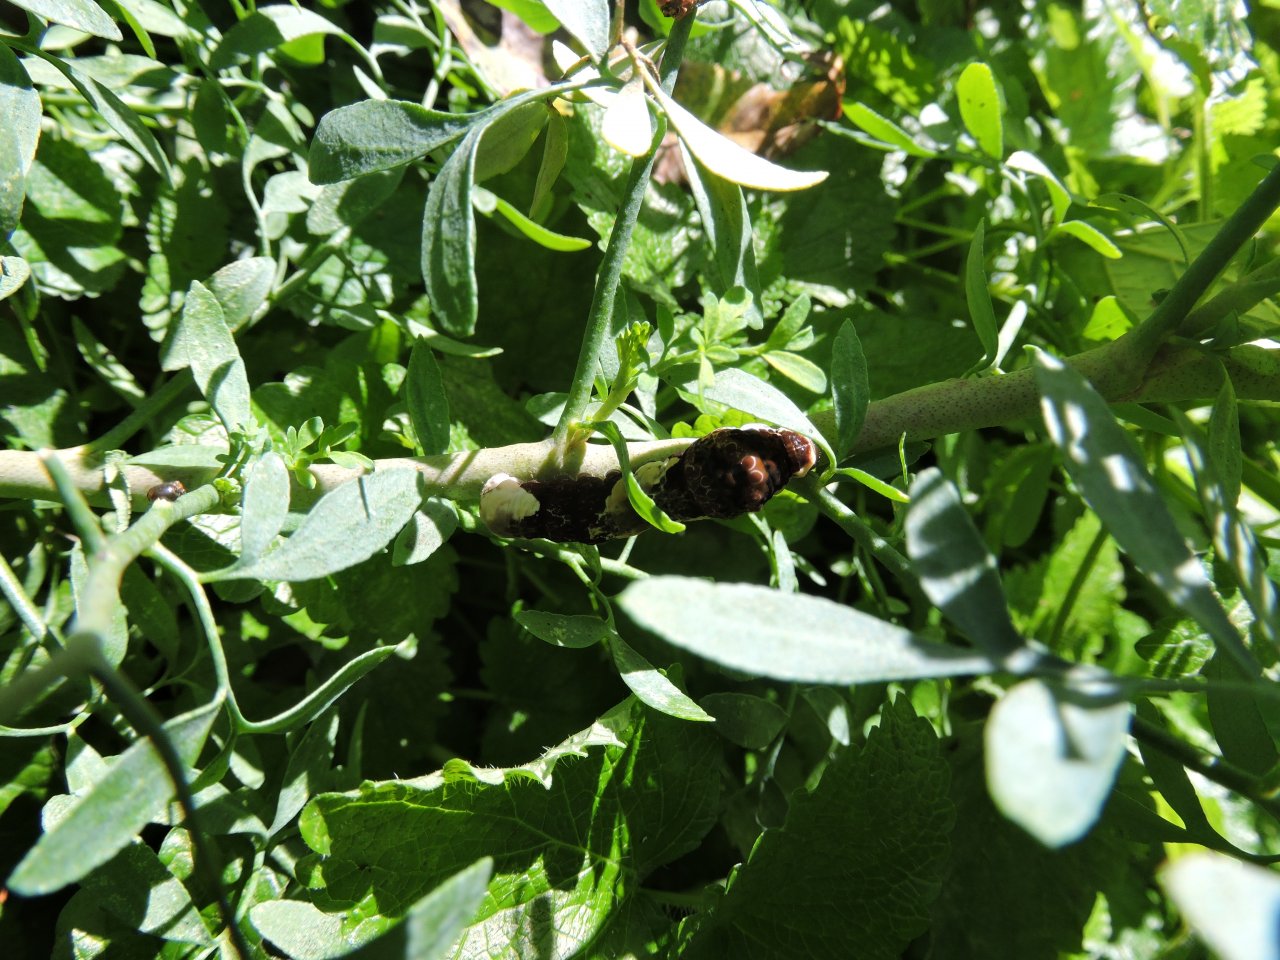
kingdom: Animalia
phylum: Arthropoda
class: Insecta
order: Lepidoptera
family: Papilionidae
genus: Papilio
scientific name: Papilio cresphontes
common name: Eastern Giant Swallowtail
